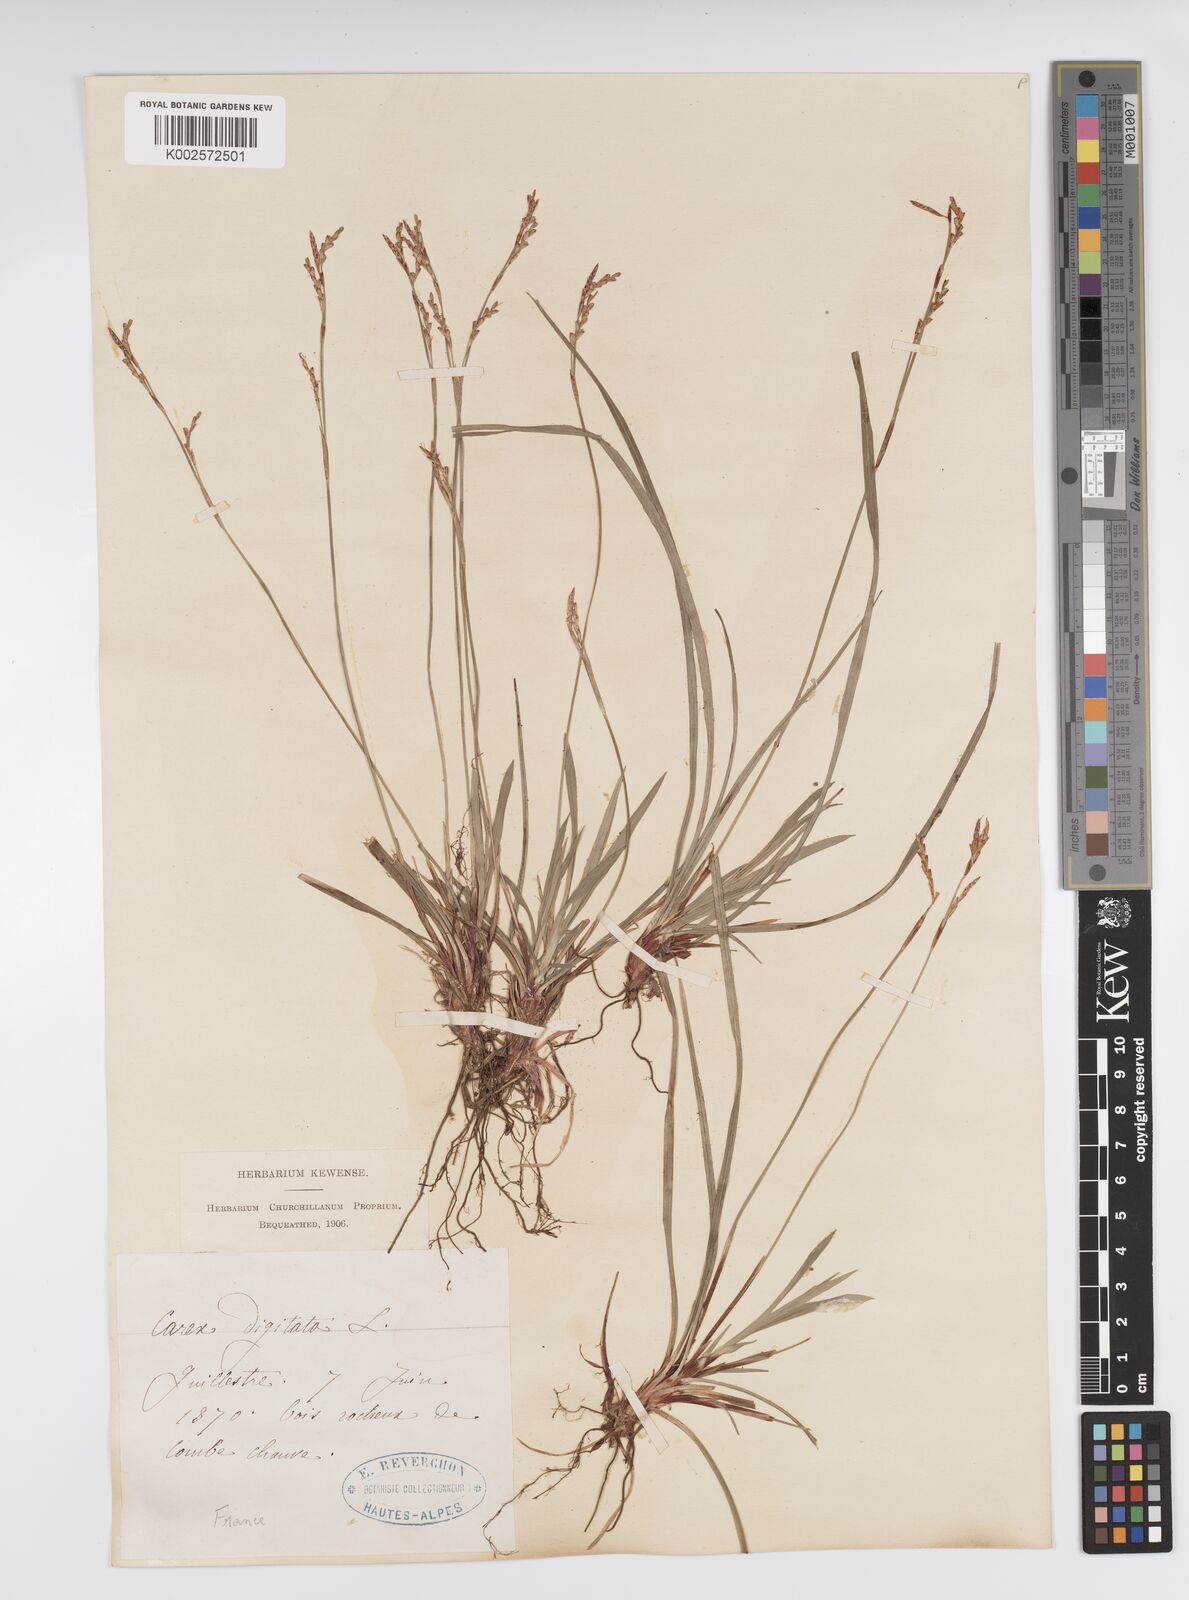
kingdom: Plantae
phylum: Tracheophyta
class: Liliopsida
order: Poales
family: Cyperaceae
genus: Carex
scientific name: Carex digitata
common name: Fingered sedge
